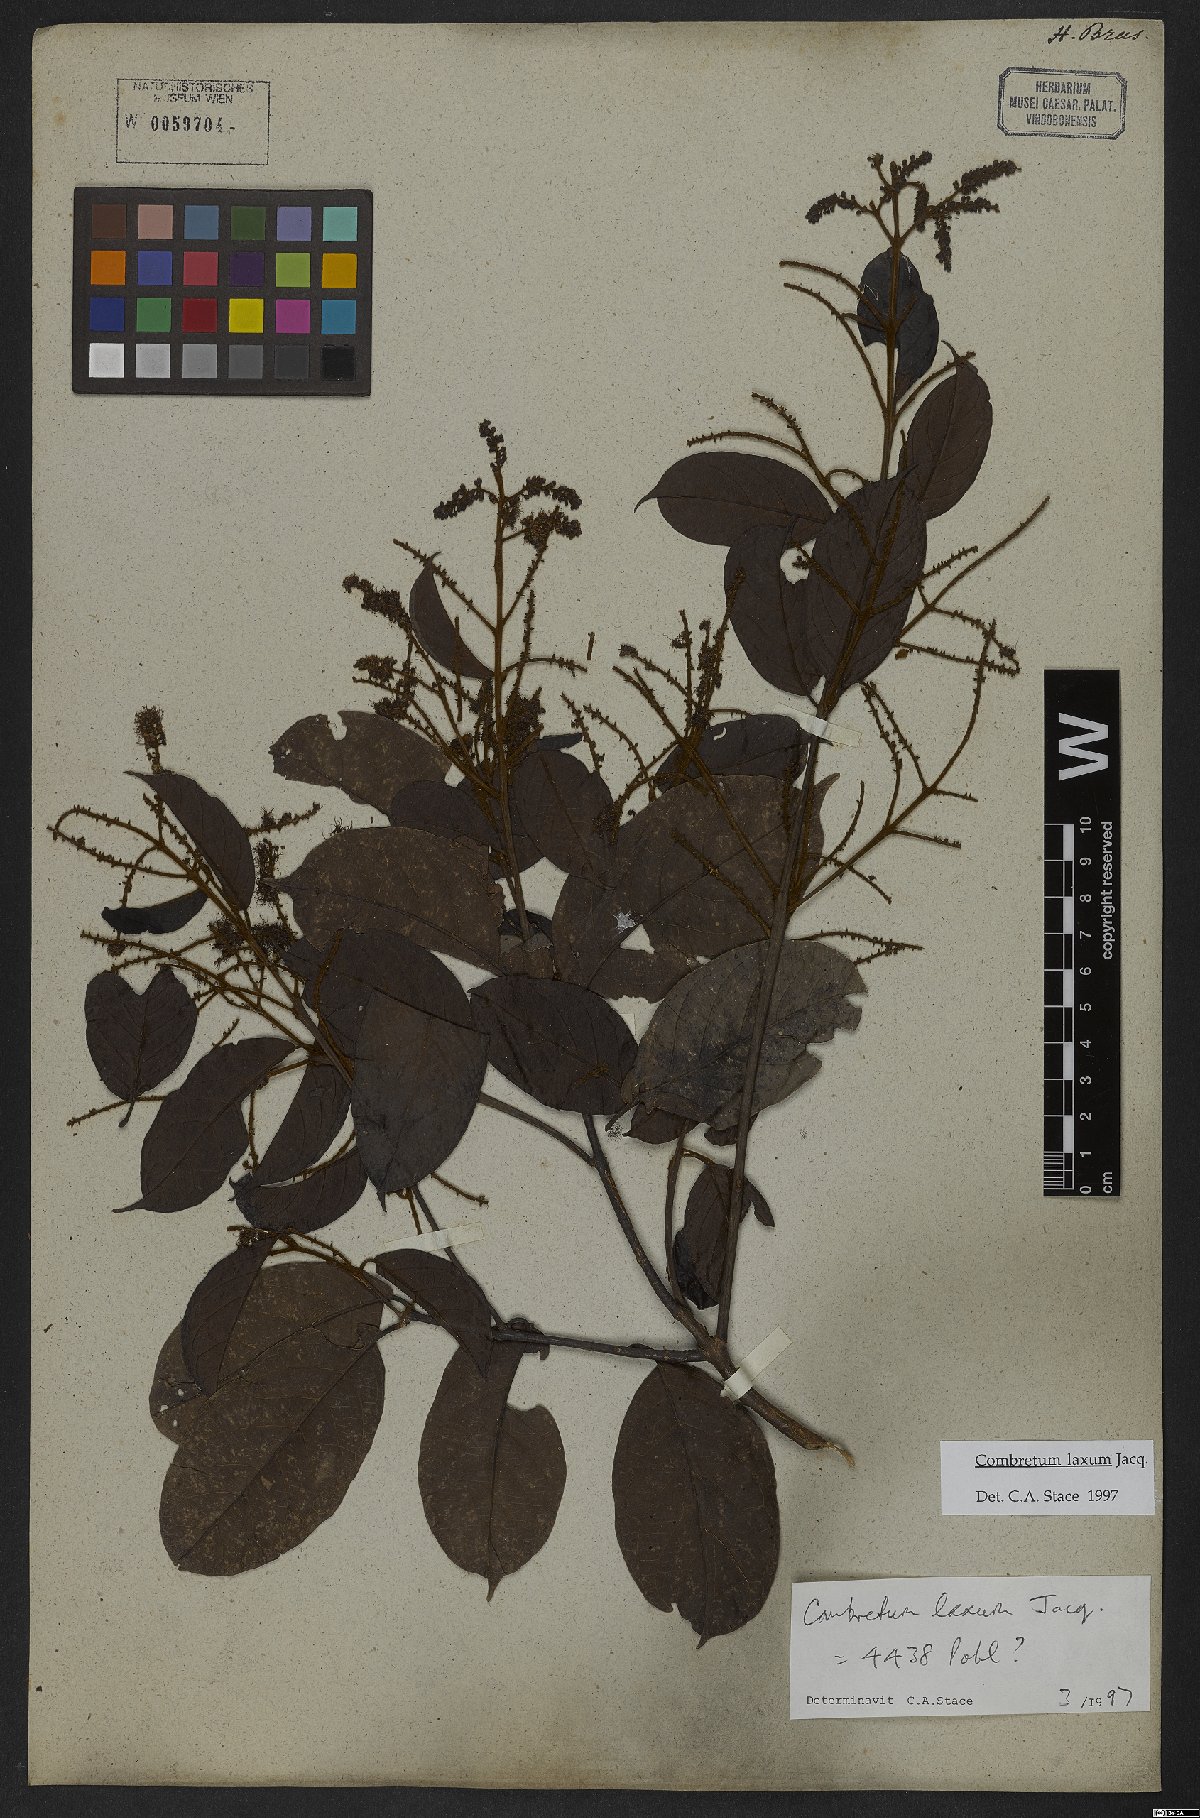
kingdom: Plantae
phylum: Tracheophyta
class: Magnoliopsida
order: Myrtales
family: Combretaceae
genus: Combretum
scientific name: Combretum laxum
